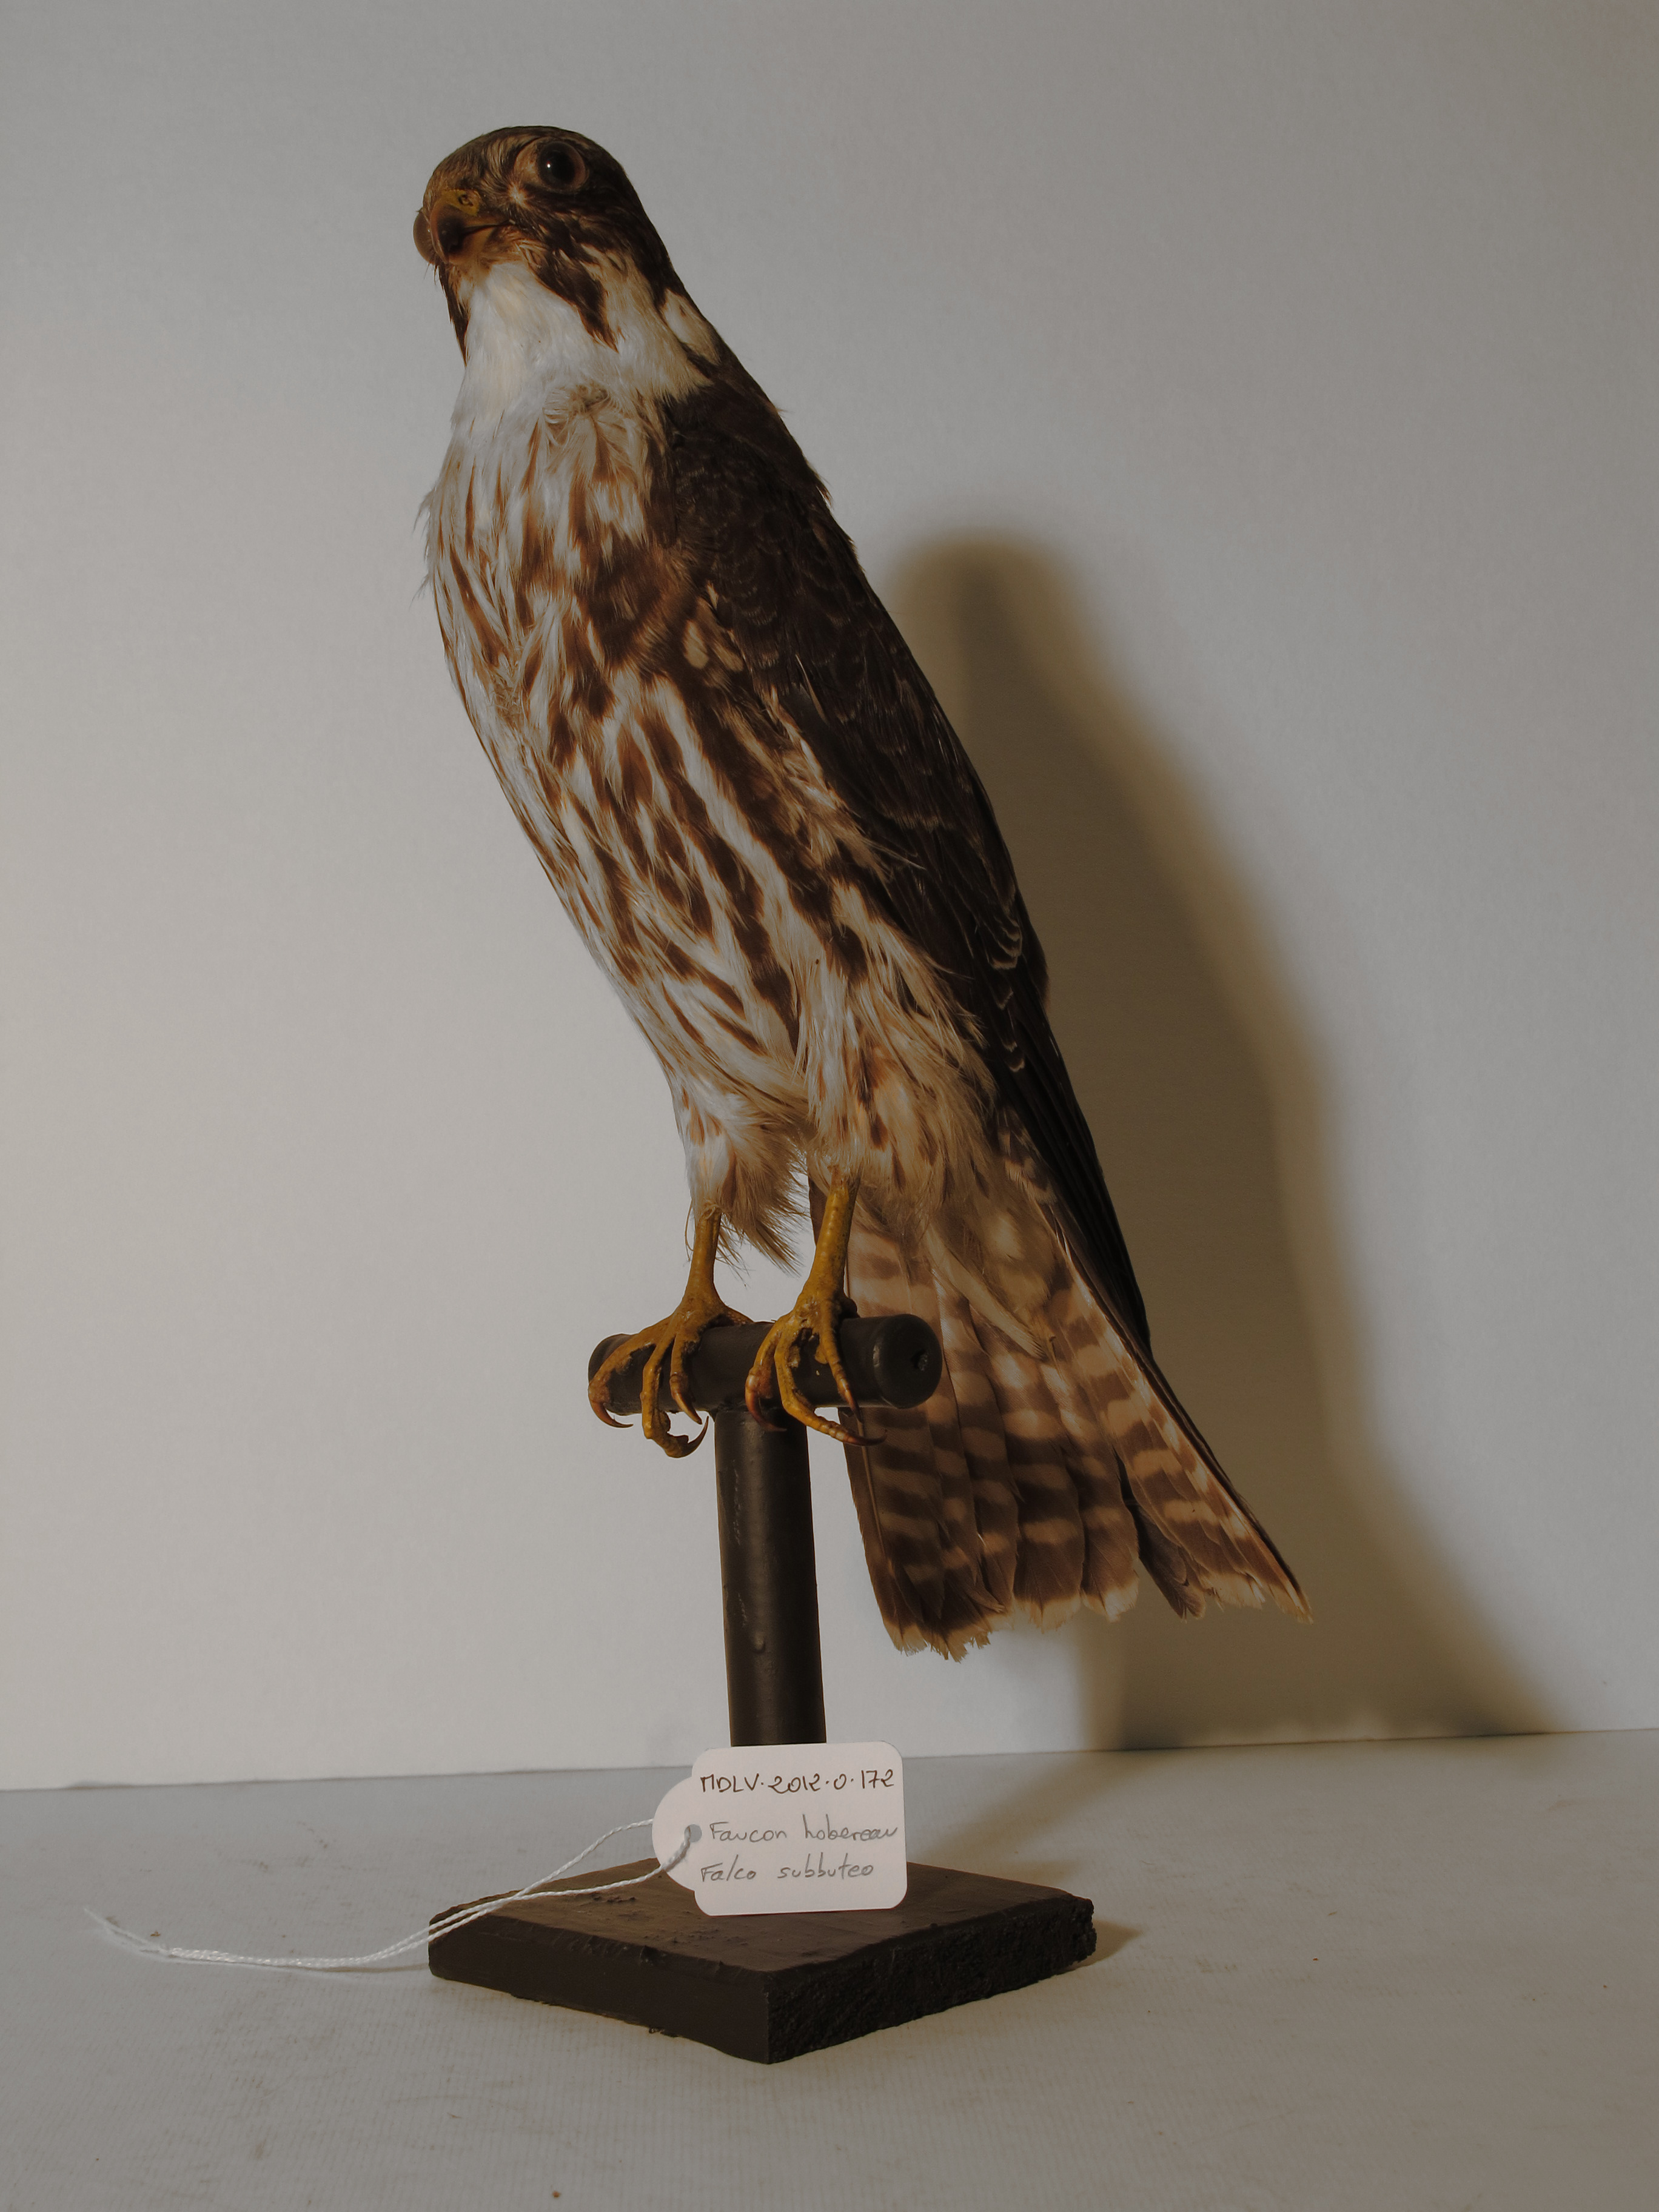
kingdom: Animalia
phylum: Chordata
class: Aves
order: Falconiformes
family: Falconidae
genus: Falco
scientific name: Falco subbuteo
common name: Eurasian Hobby
